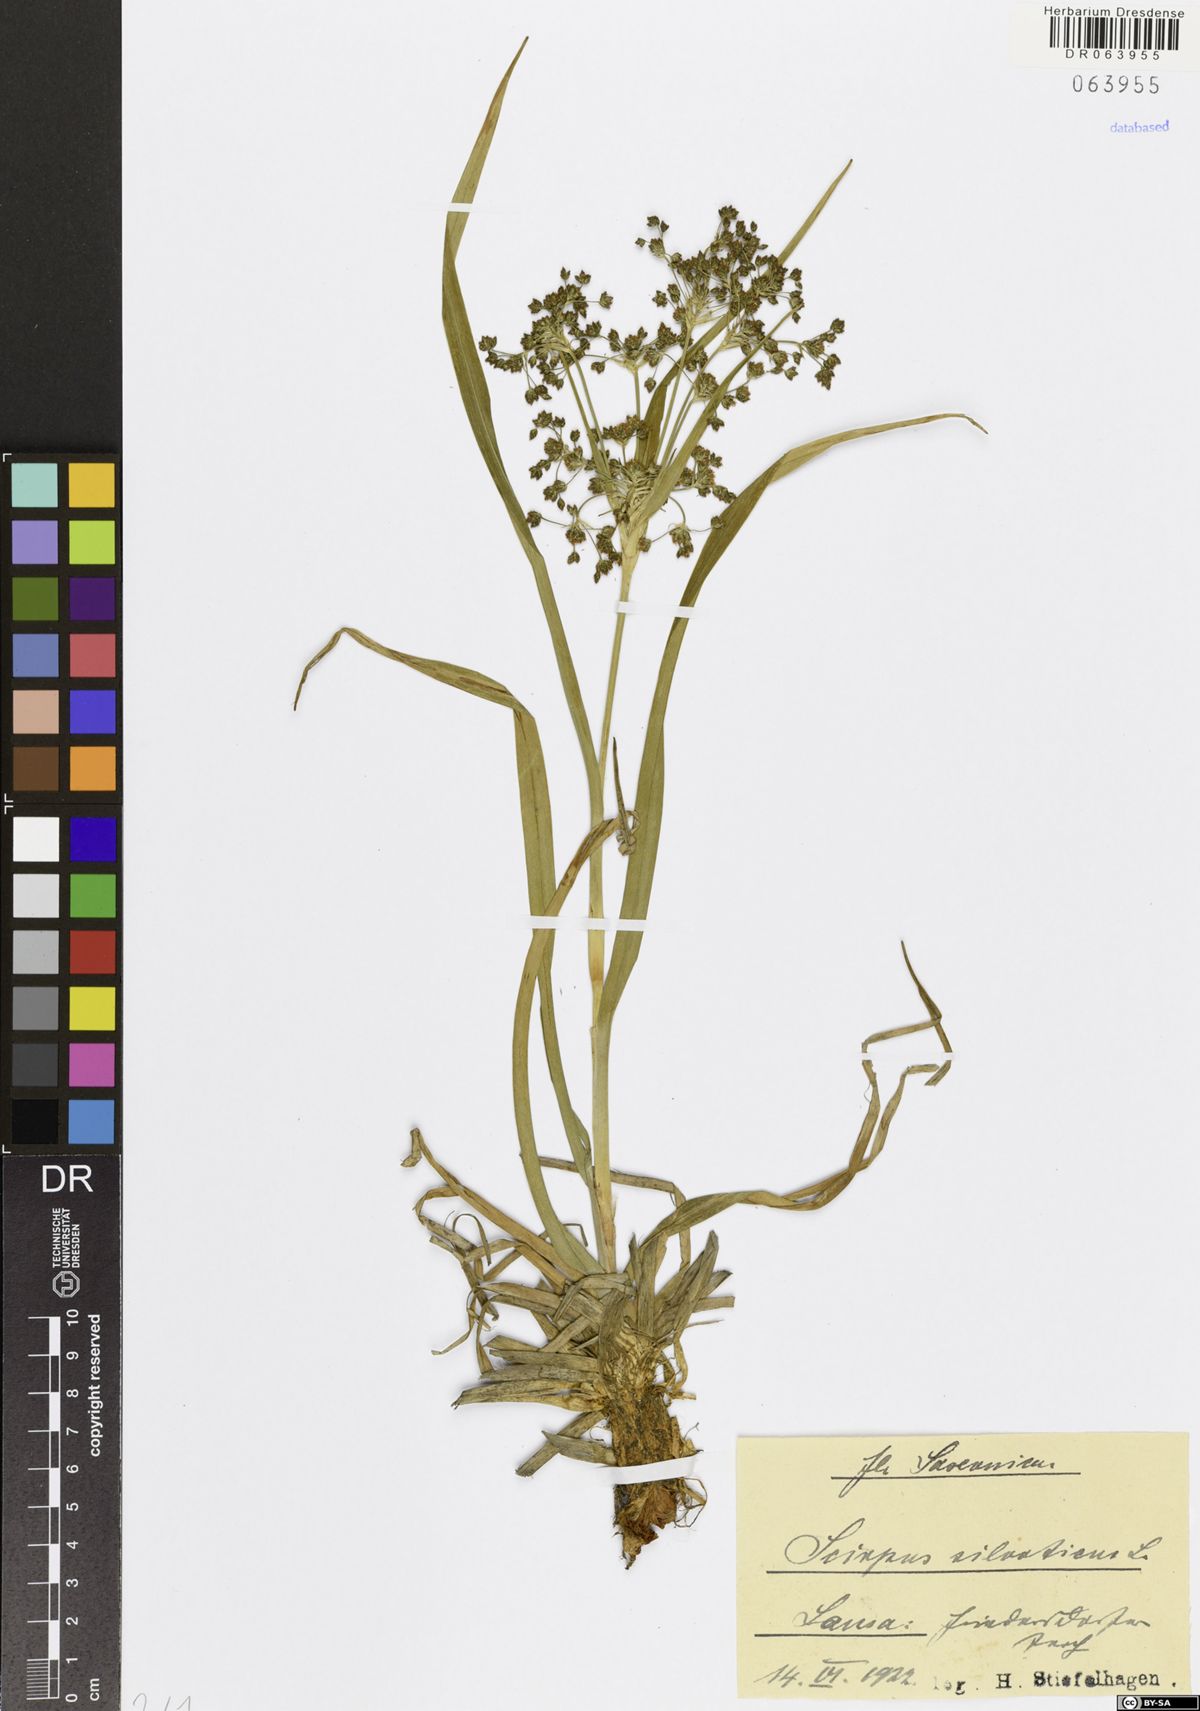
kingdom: Plantae
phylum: Tracheophyta
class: Liliopsida
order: Poales
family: Cyperaceae
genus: Scirpus
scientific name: Scirpus sylvaticus
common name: Wood club-rush
